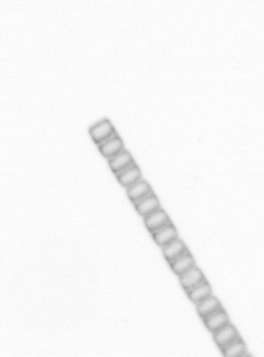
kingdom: Chromista
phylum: Ochrophyta
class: Bacillariophyceae
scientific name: Bacillariophyceae
